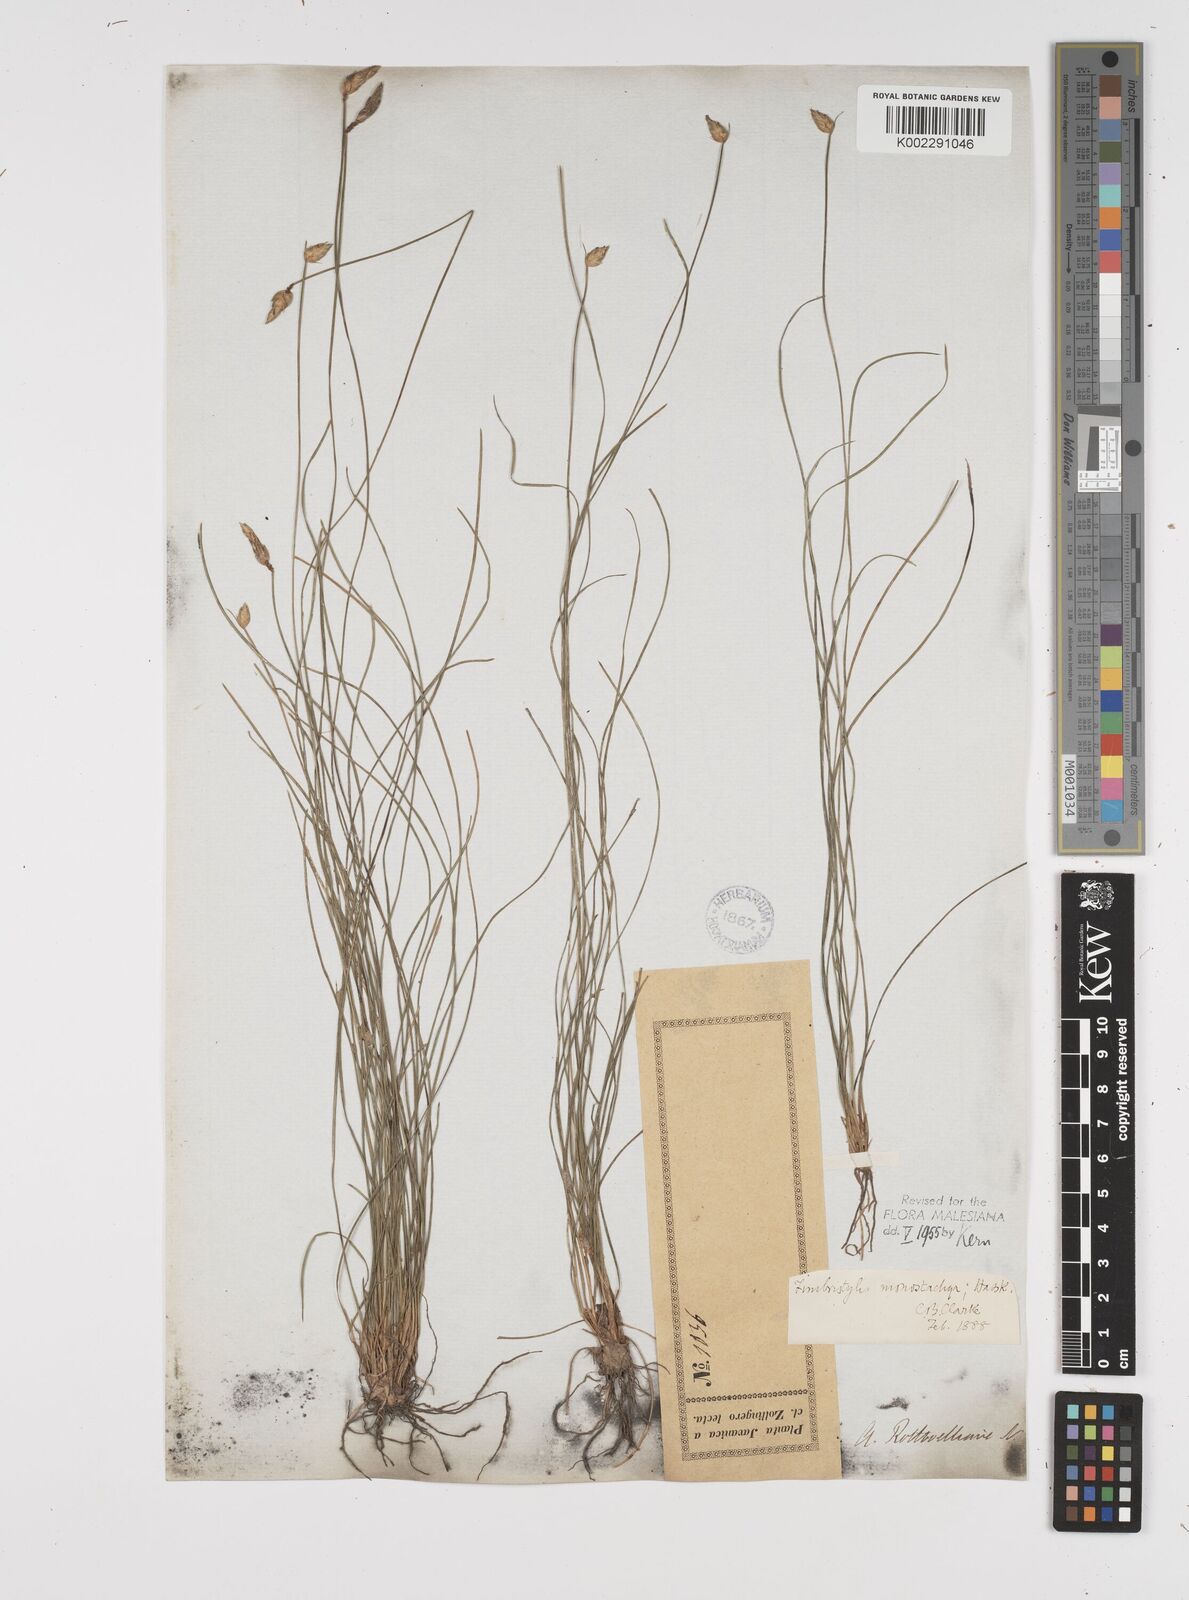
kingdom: Plantae
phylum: Tracheophyta
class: Liliopsida
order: Poales
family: Cyperaceae
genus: Abildgaardia
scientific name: Abildgaardia ovata
